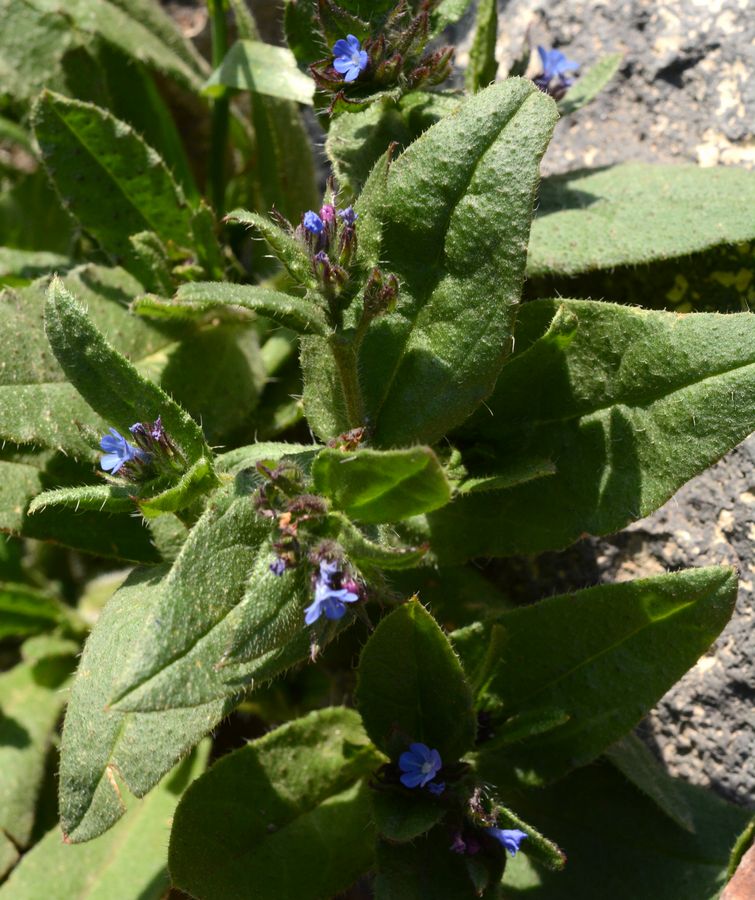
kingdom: Plantae
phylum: Tracheophyta
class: Magnoliopsida
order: Boraginales
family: Boraginaceae
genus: Lycopsis
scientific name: Lycopsis arvensis
